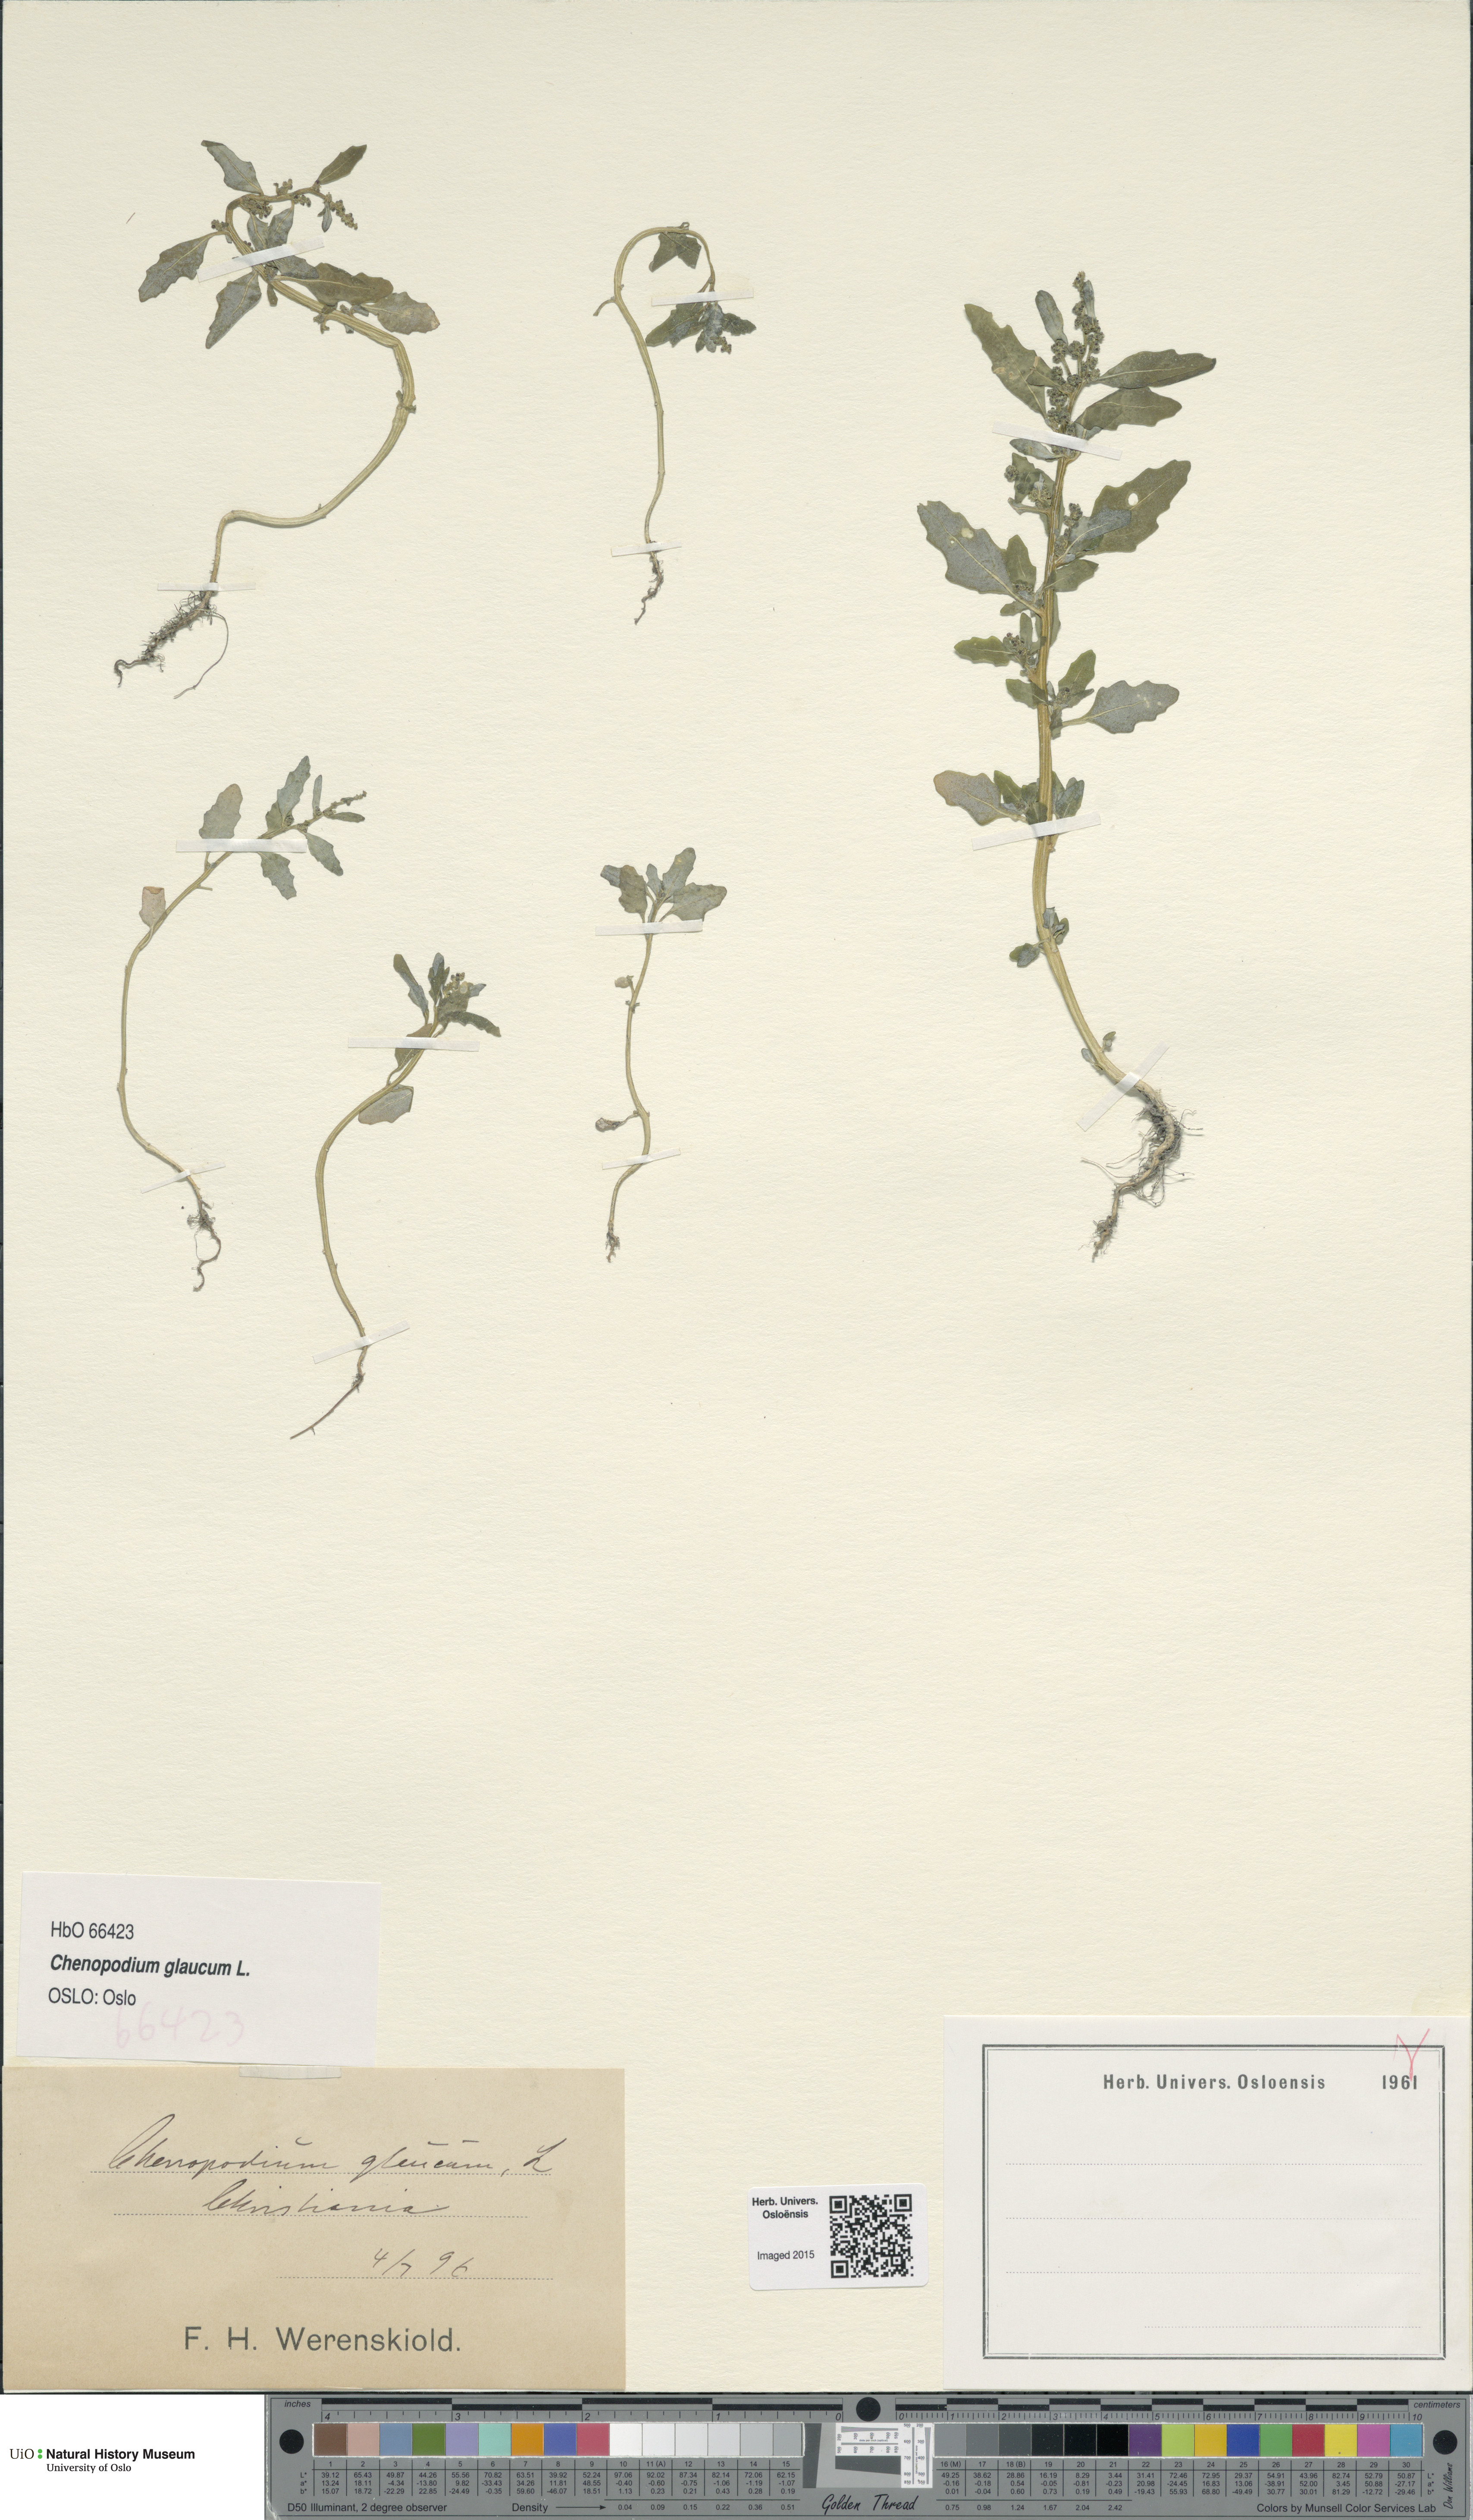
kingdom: Plantae
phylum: Tracheophyta
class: Magnoliopsida
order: Caryophyllales
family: Amaranthaceae
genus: Oxybasis
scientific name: Oxybasis glauca
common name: Glaucous goosefoot
